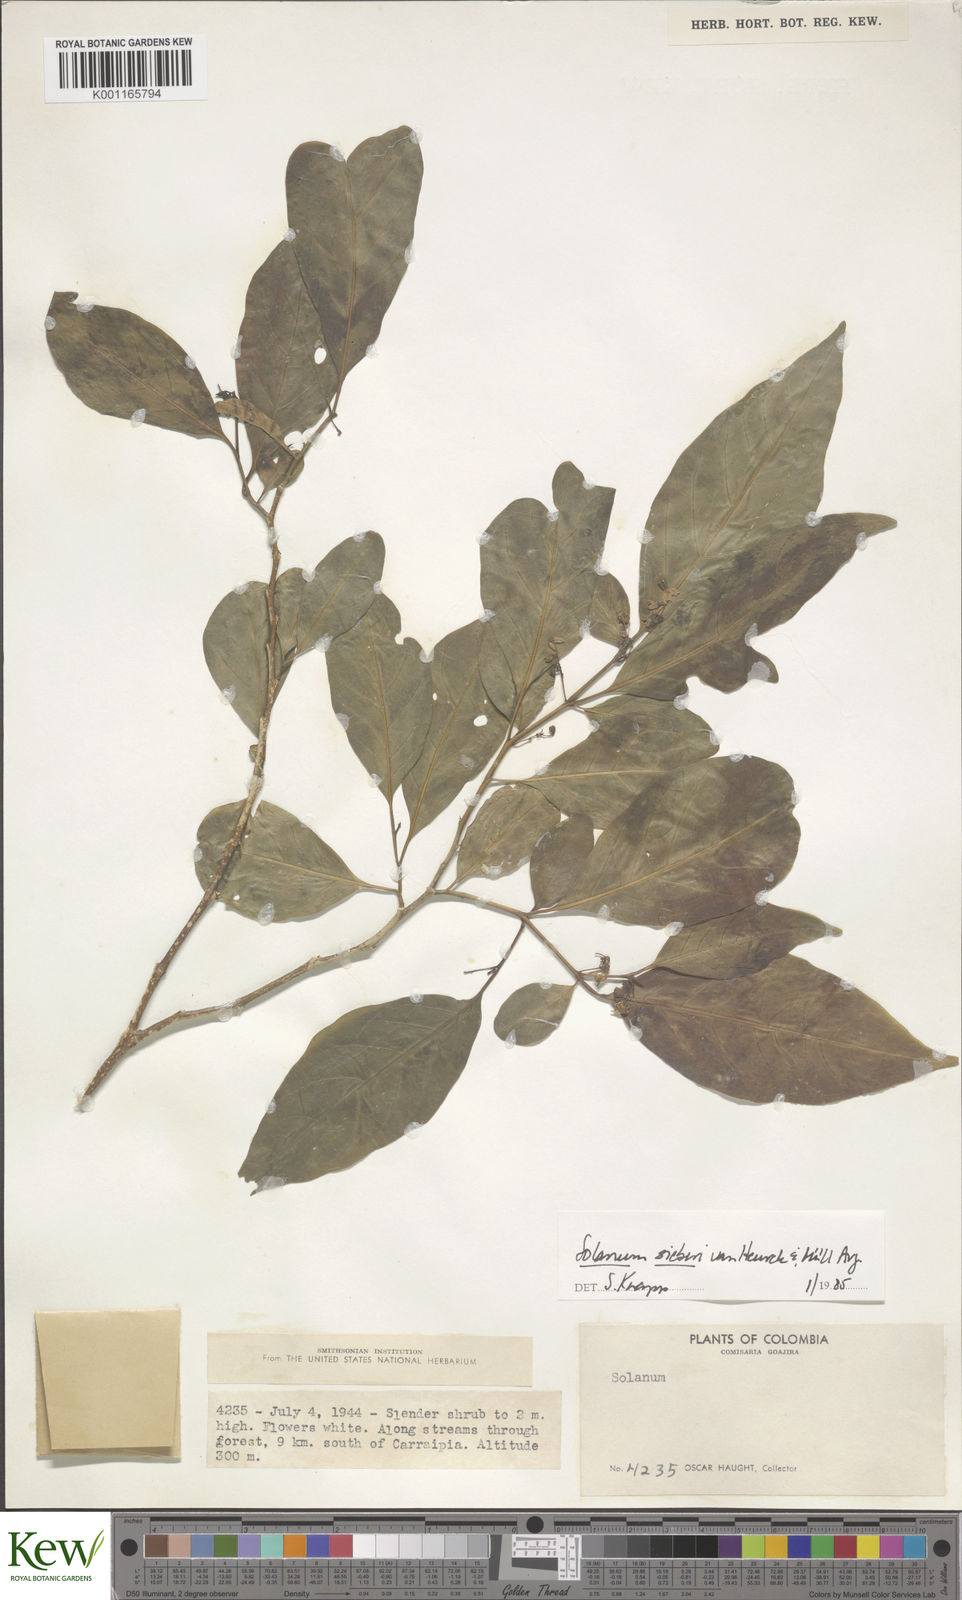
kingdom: Plantae
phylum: Tracheophyta
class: Magnoliopsida
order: Solanales
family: Solanaceae
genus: Solanum
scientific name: Solanum sieberi
